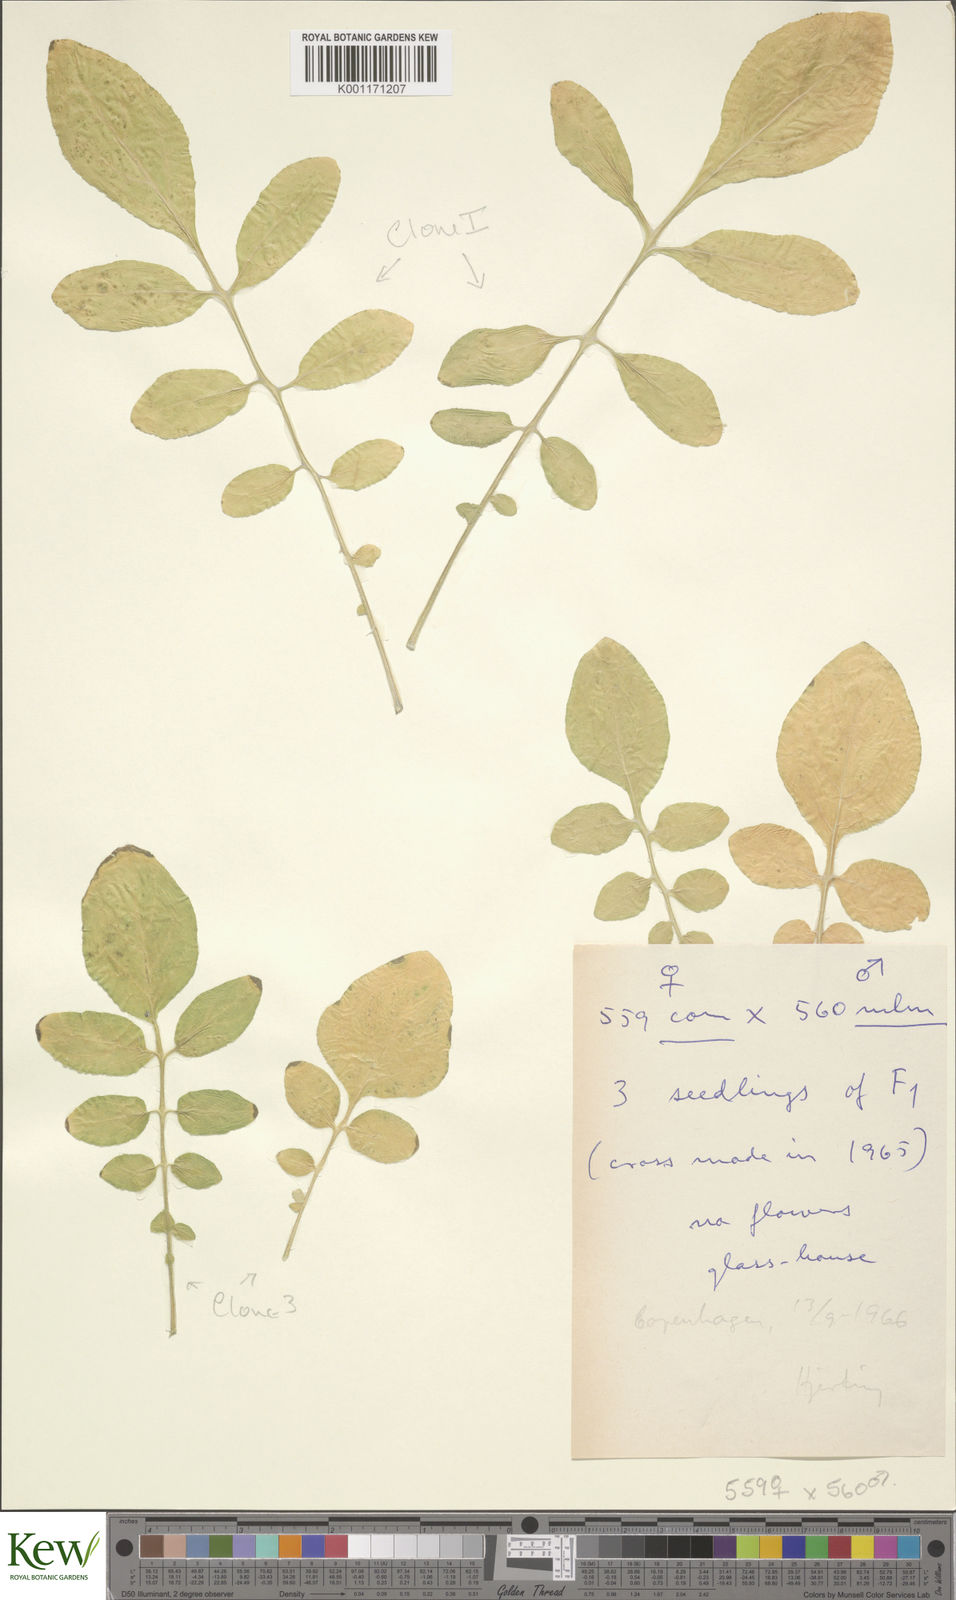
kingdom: Plantae
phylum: Tracheophyta
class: Magnoliopsida
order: Solanales
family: Solanaceae
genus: Solanum
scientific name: Solanum commersonii
